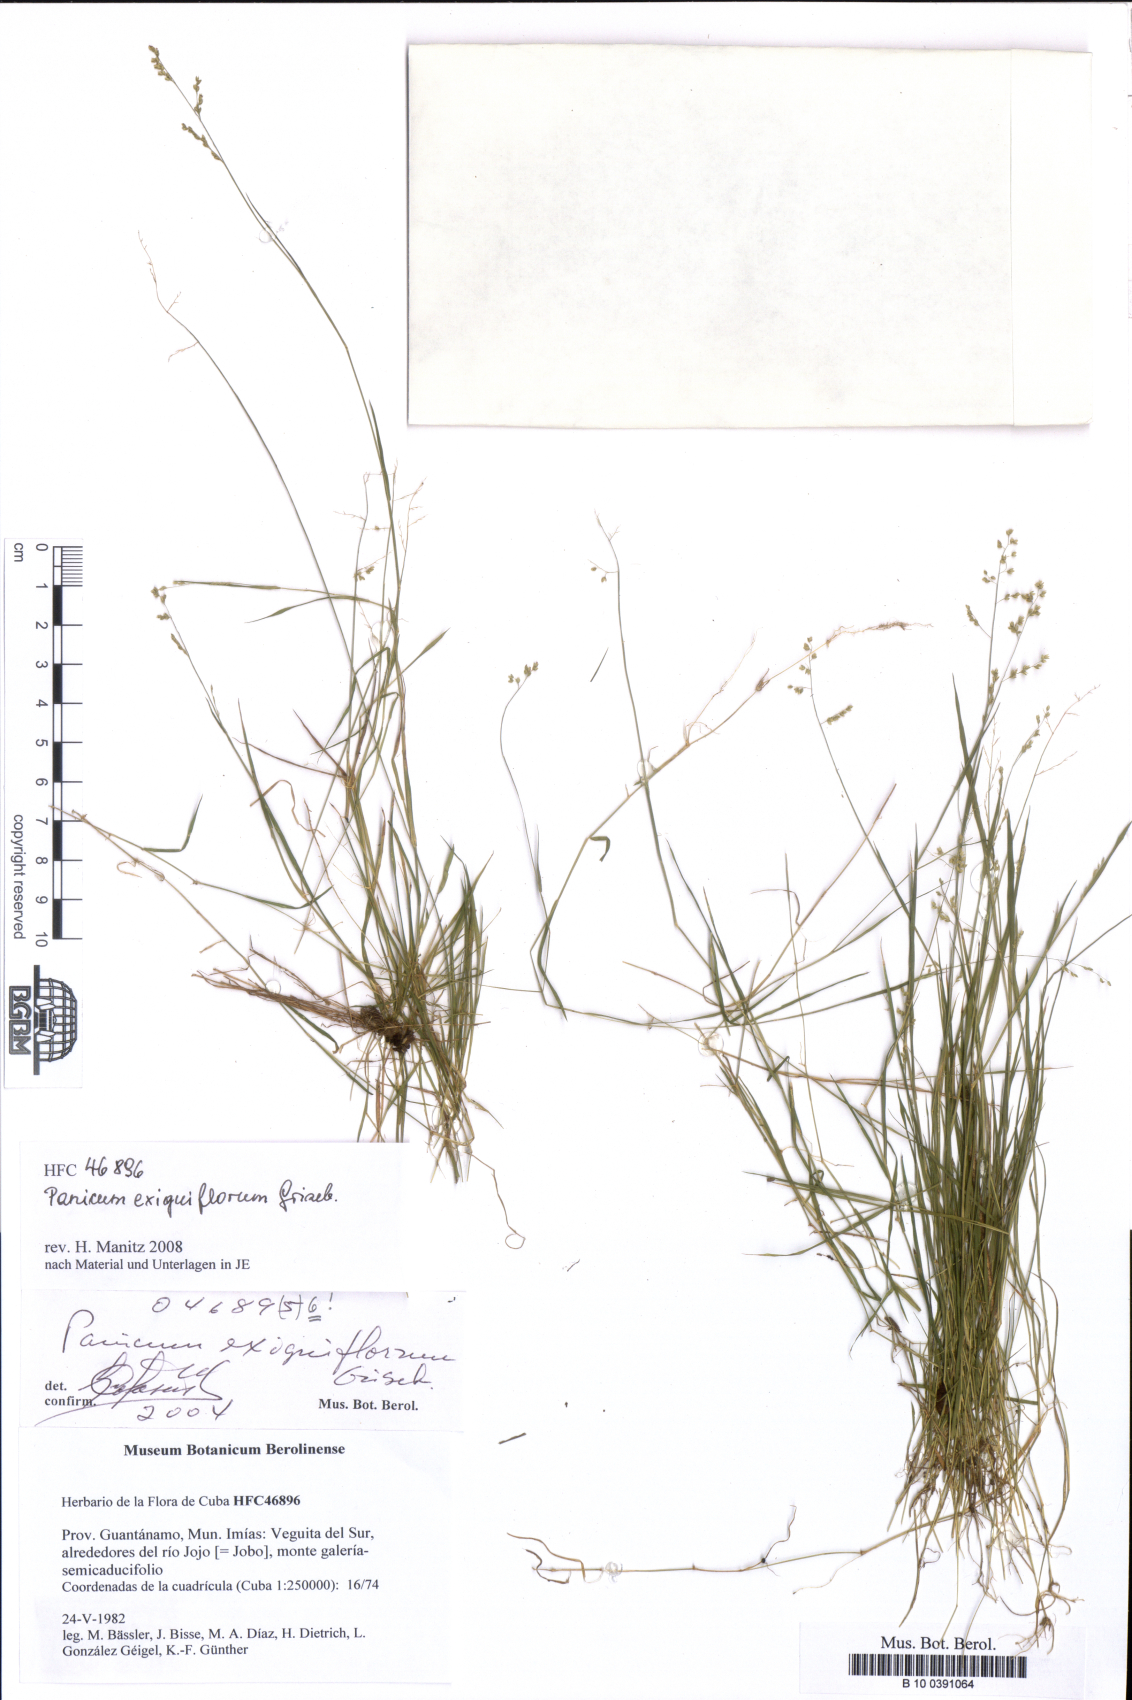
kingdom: Plantae
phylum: Tracheophyta
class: Liliopsida
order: Poales
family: Poaceae
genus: Steinchisma
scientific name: Steinchisma exiguiflorum
